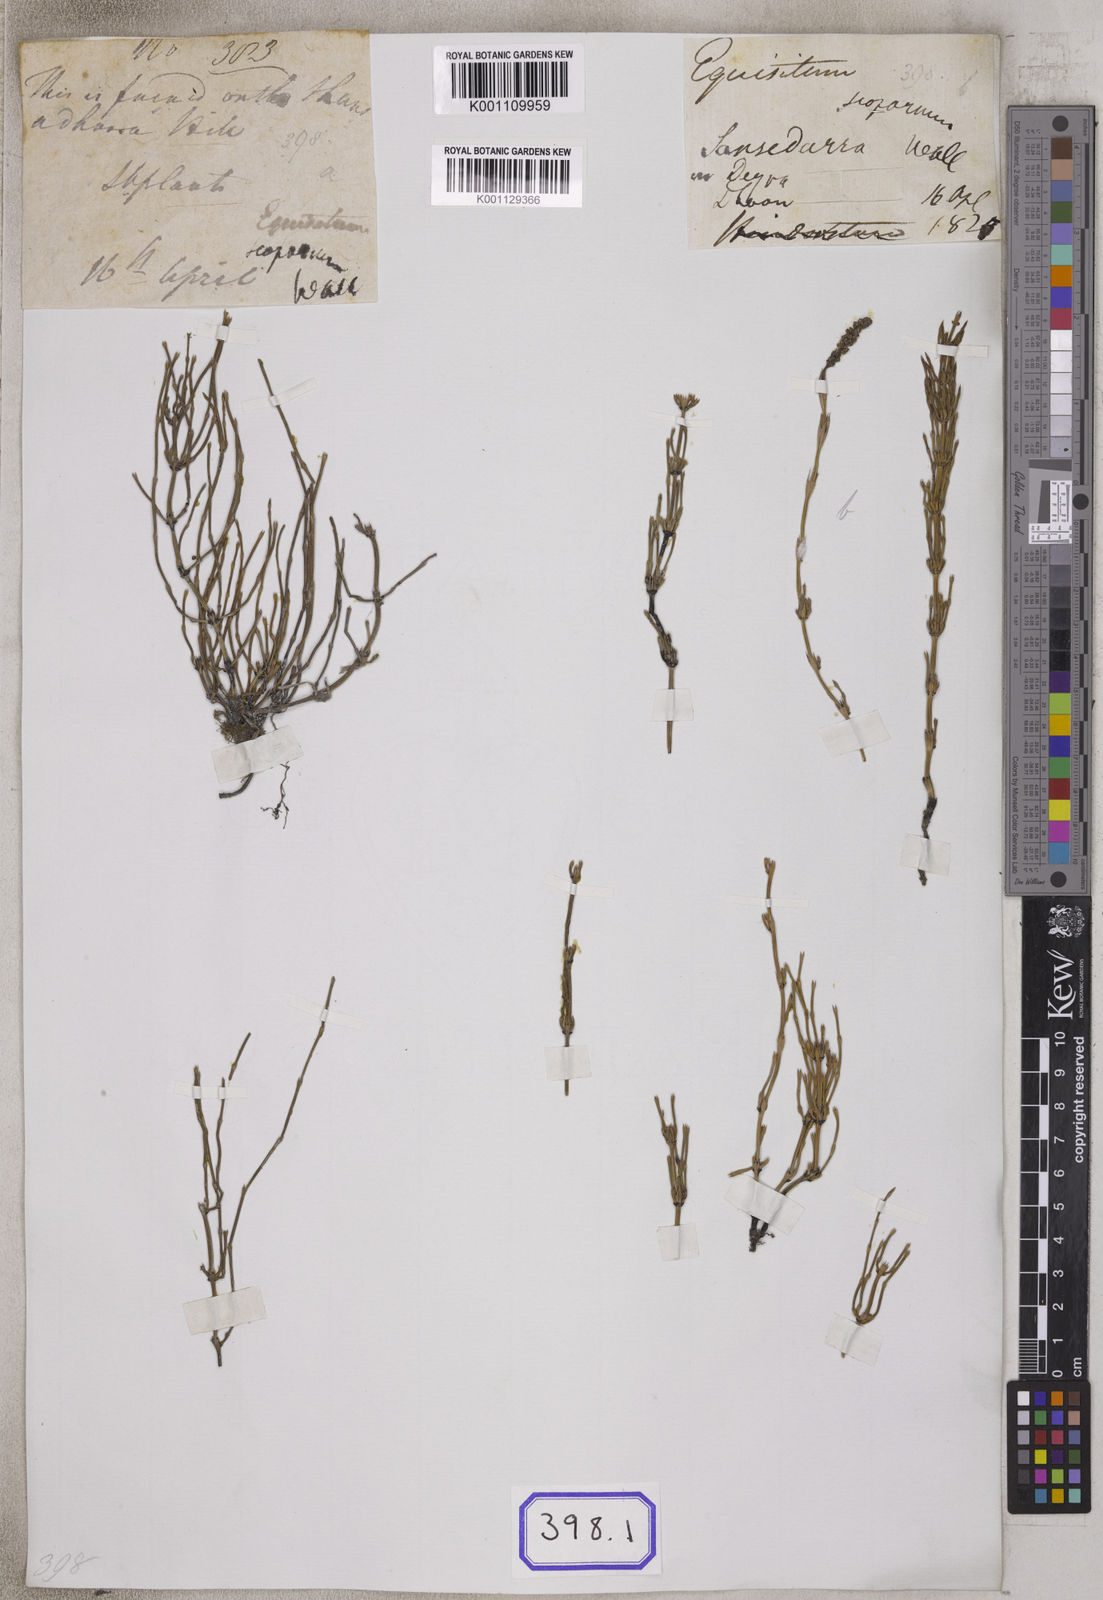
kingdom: Plantae
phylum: Tracheophyta
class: Polypodiopsida
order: Equisetales
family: Equisetaceae
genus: Equisetum
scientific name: Equisetum scoparium
